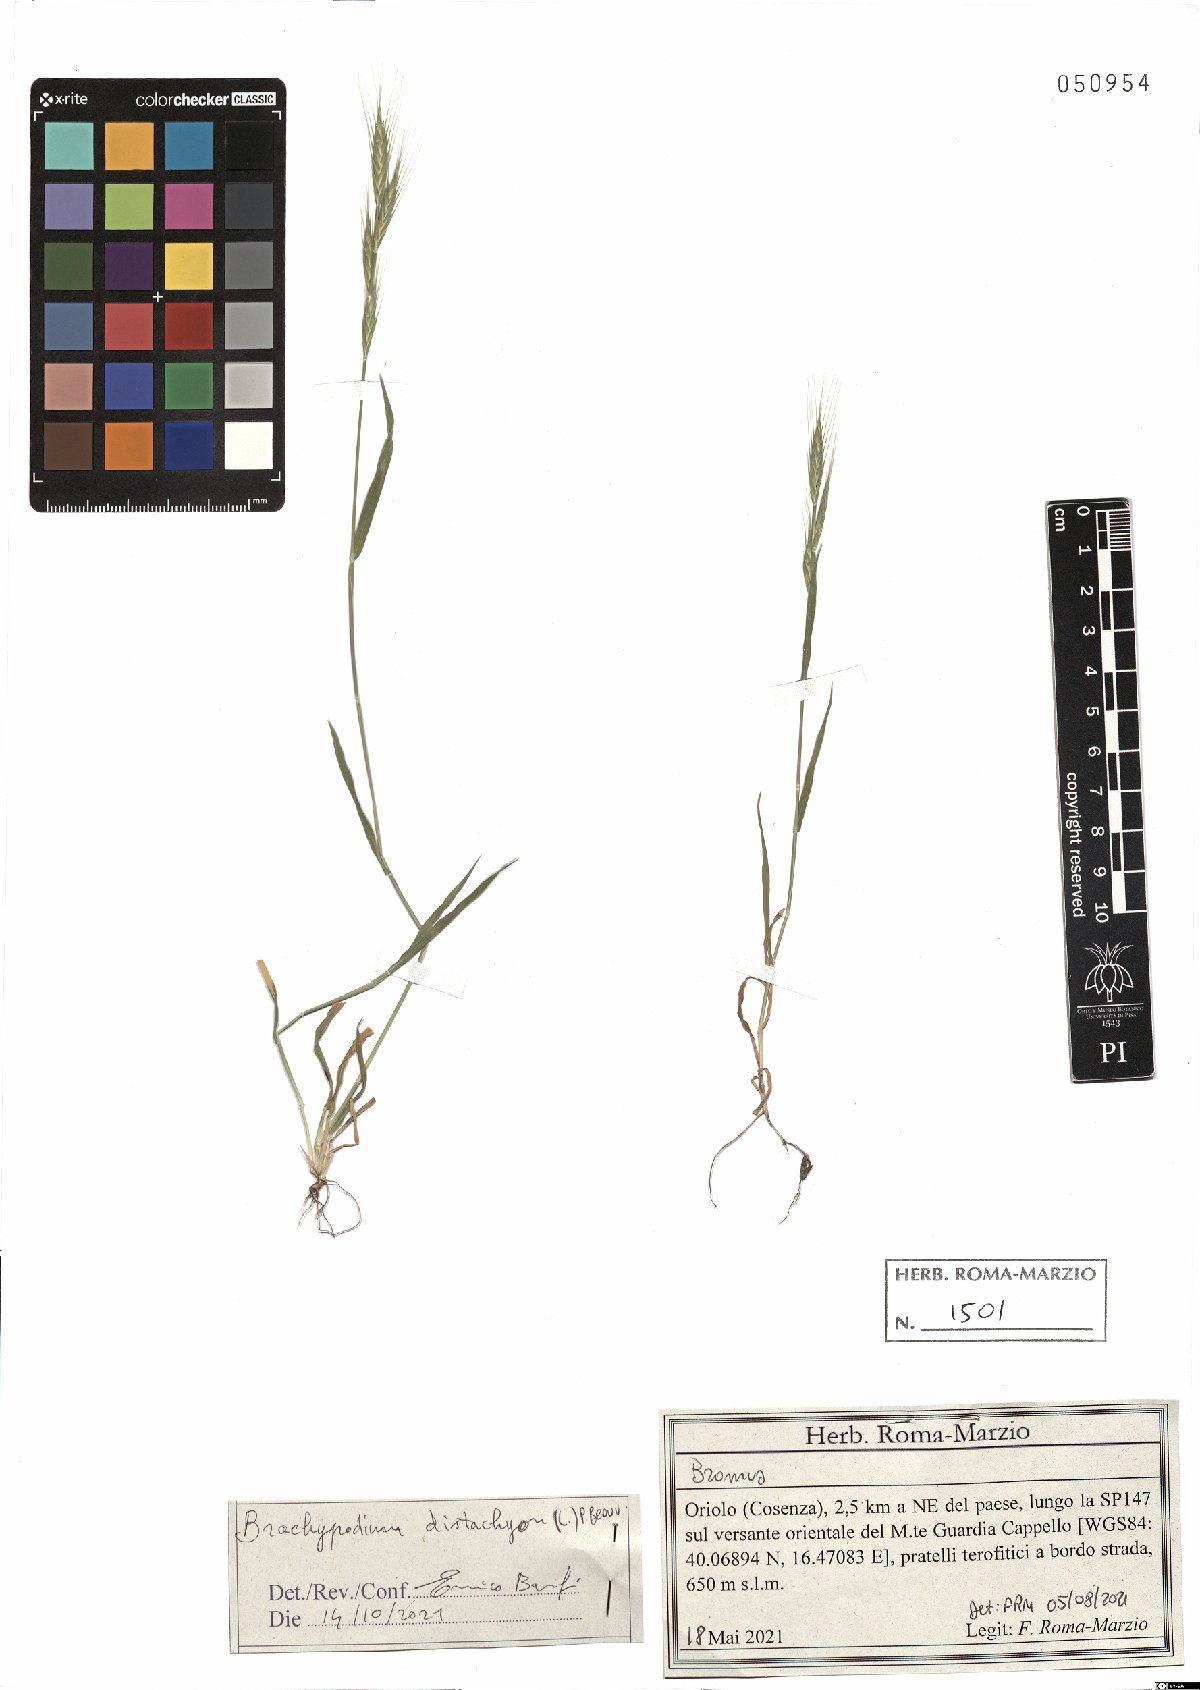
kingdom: Plantae
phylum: Tracheophyta
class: Liliopsida
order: Poales
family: Poaceae
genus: Brachypodium
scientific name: Brachypodium distachyon
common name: Stiff brome
